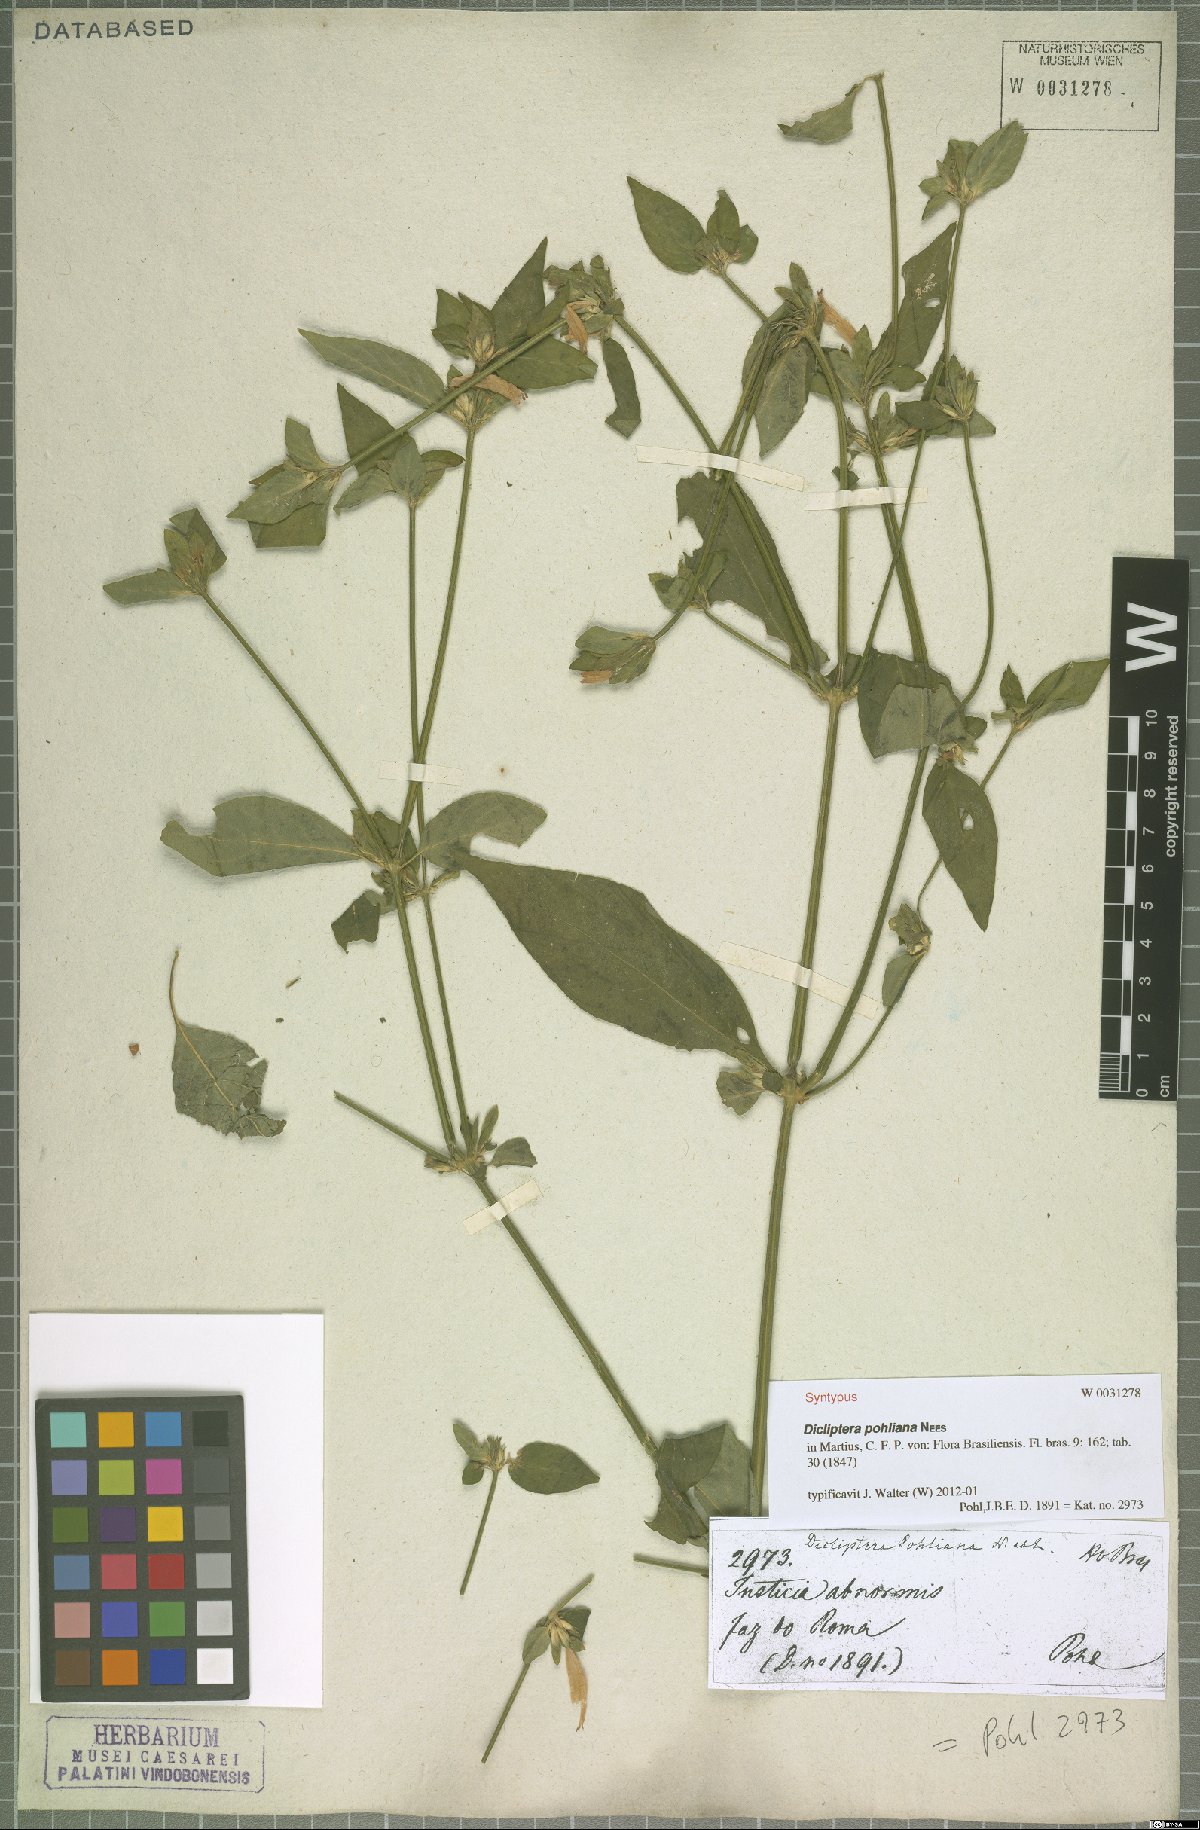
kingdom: Plantae
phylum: Tracheophyta
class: Magnoliopsida
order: Lamiales
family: Acanthaceae
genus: Dicliptera
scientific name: Dicliptera squarrosa
